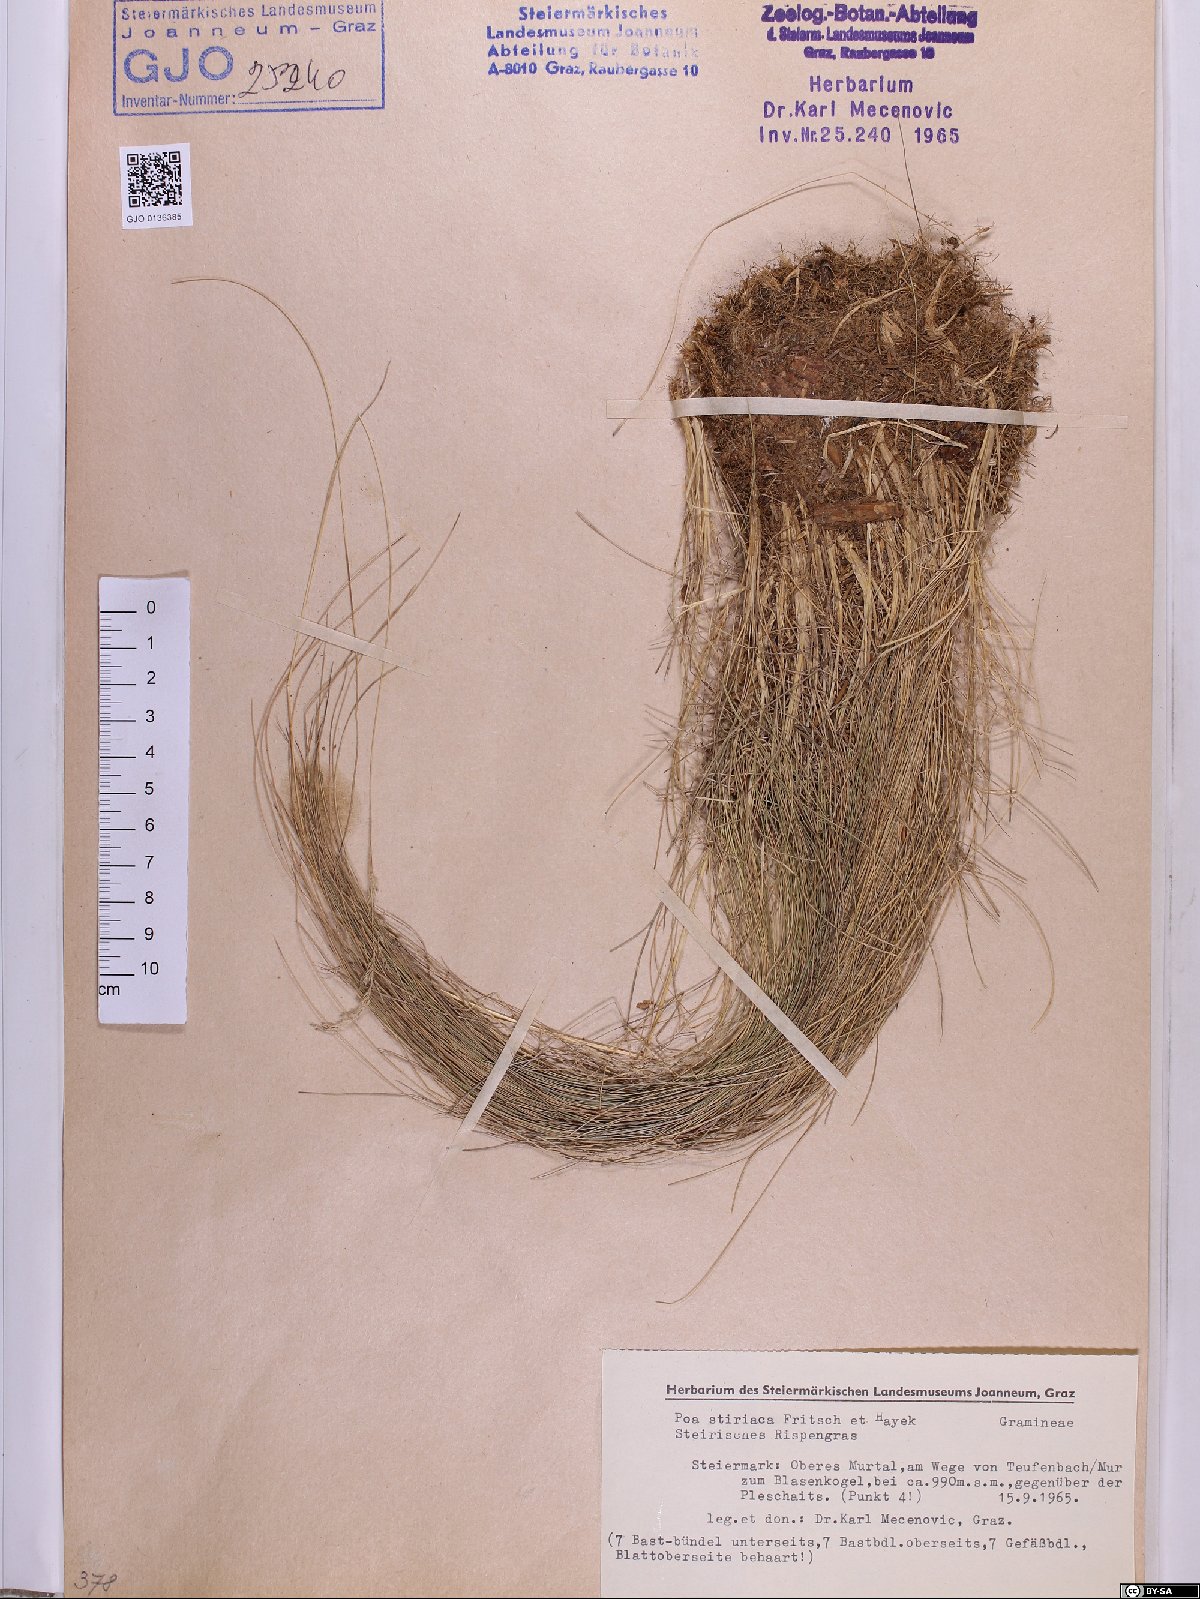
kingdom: Plantae
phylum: Tracheophyta
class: Liliopsida
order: Poales
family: Poaceae
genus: Poa
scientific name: Poa stiriaca
